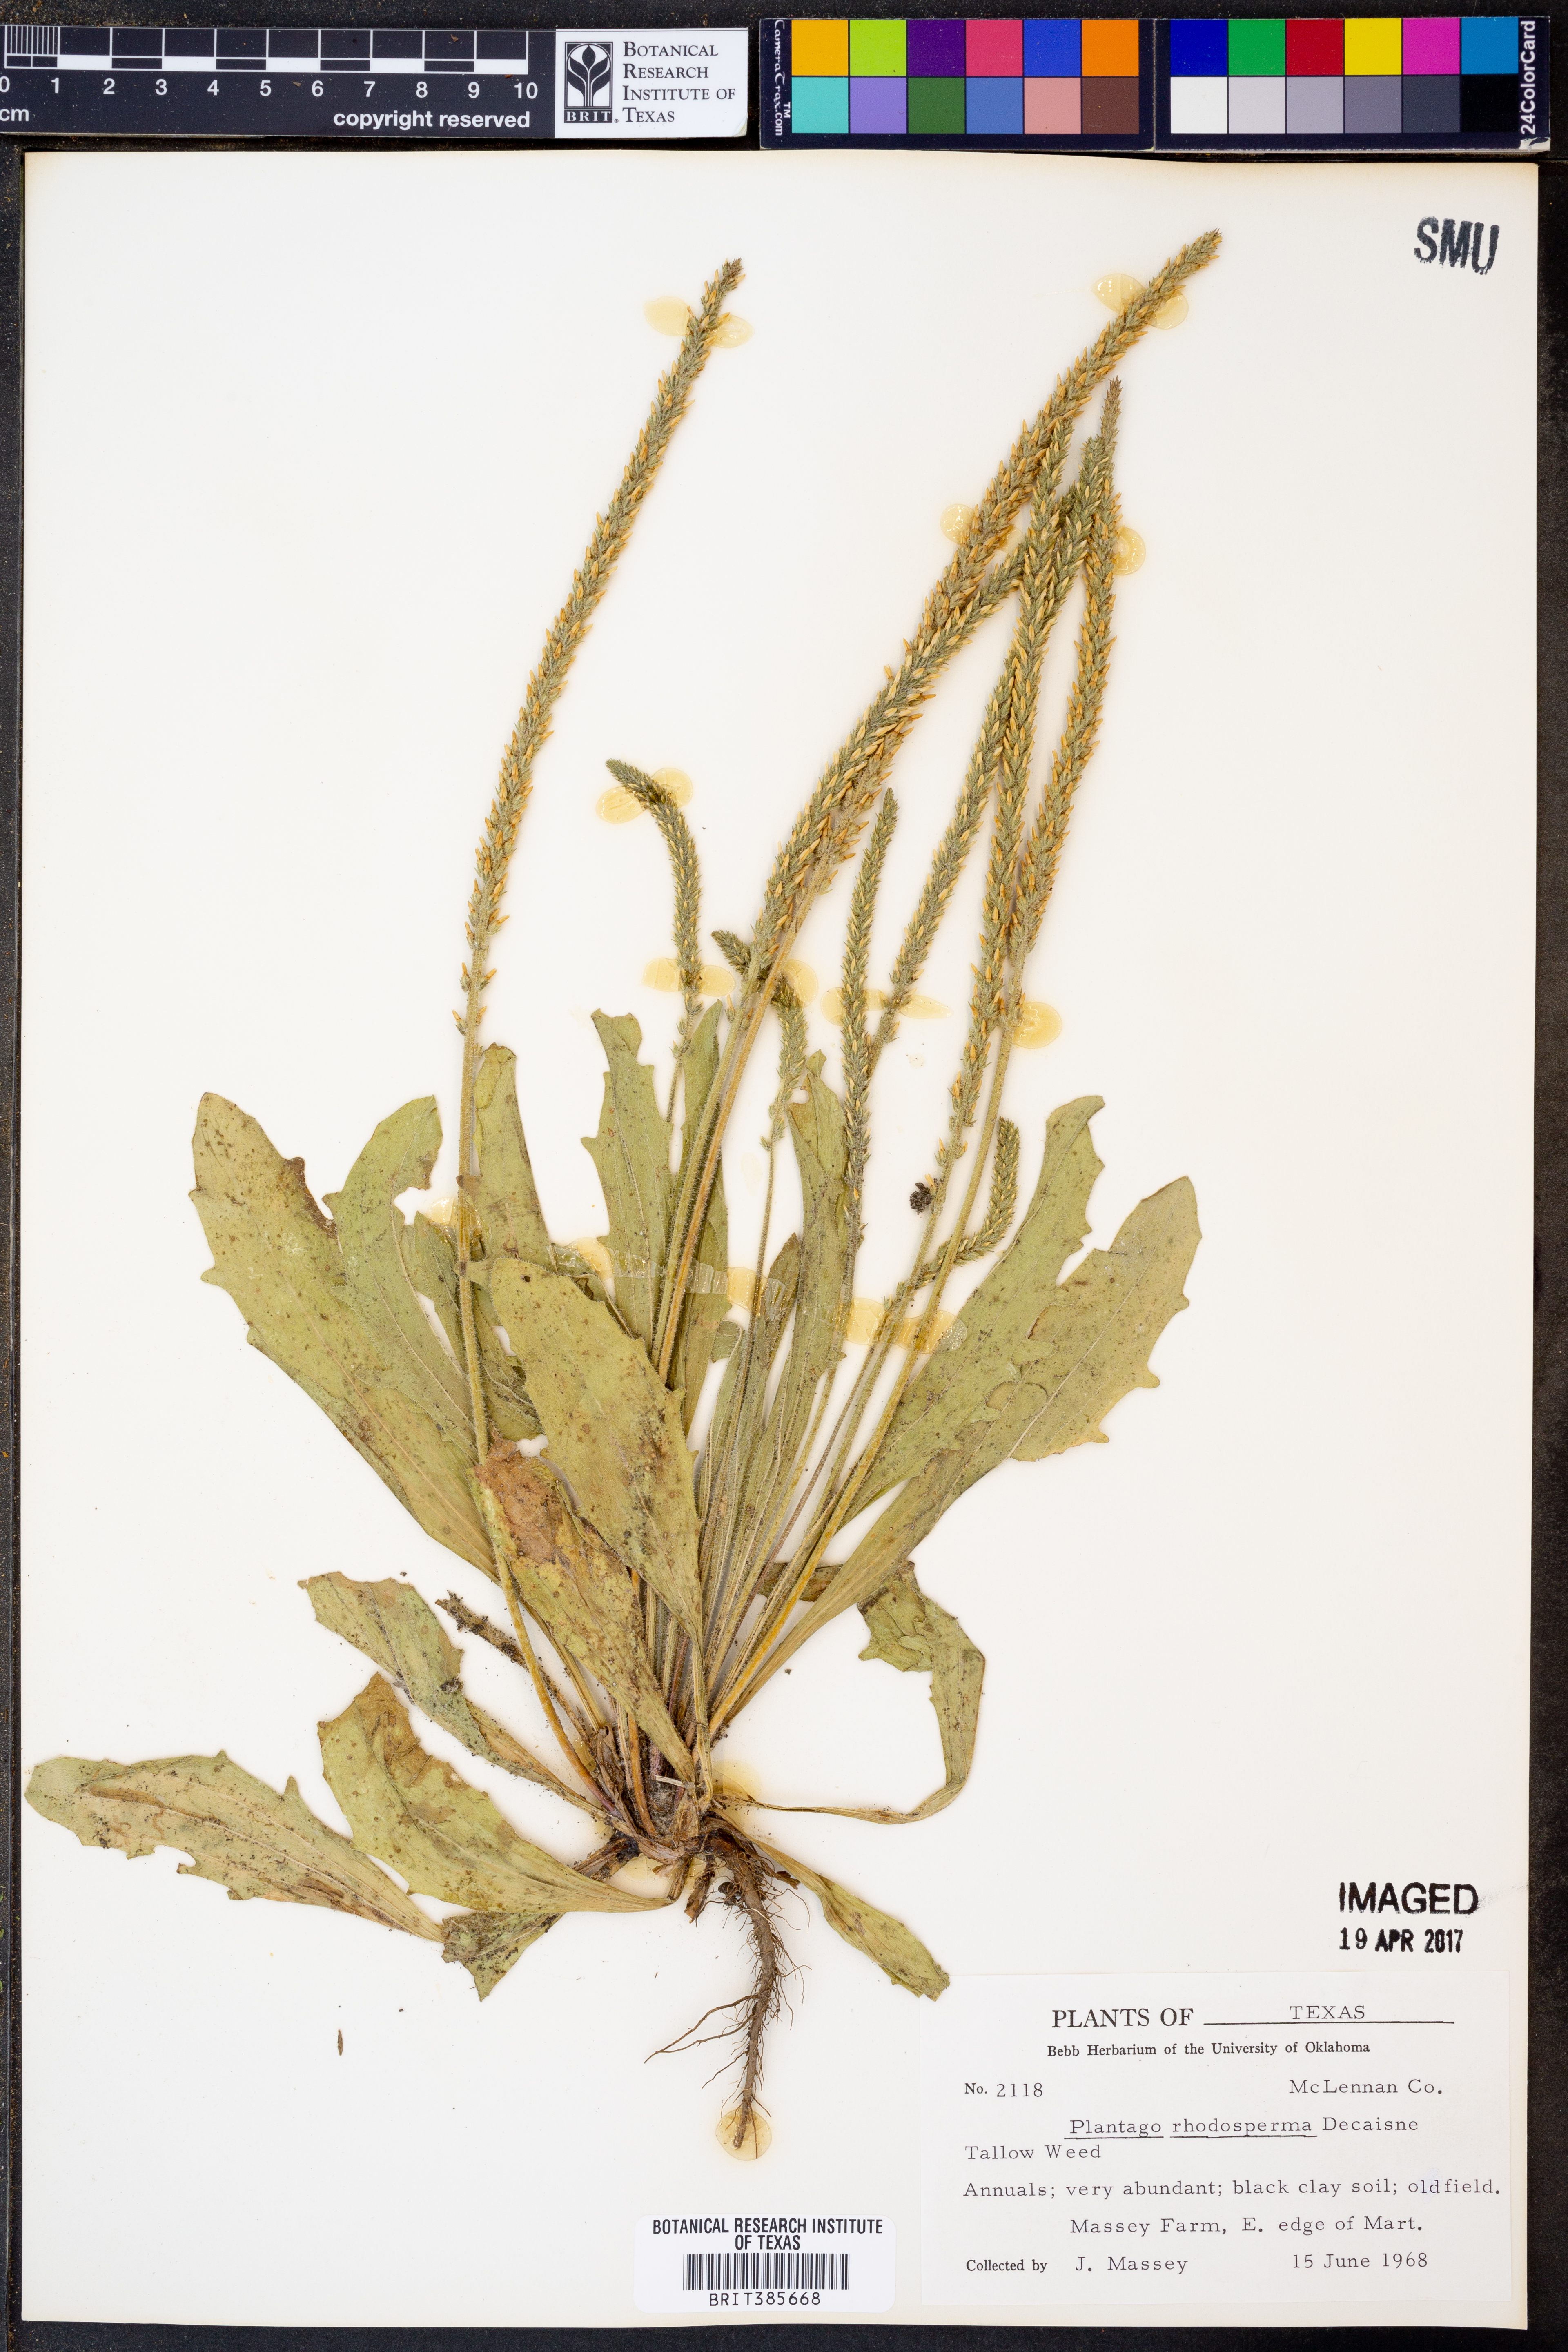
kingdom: Plantae
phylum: Tracheophyta
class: Magnoliopsida
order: Lamiales
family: Plantaginaceae
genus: Plantago
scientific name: Plantago rhodosperma
